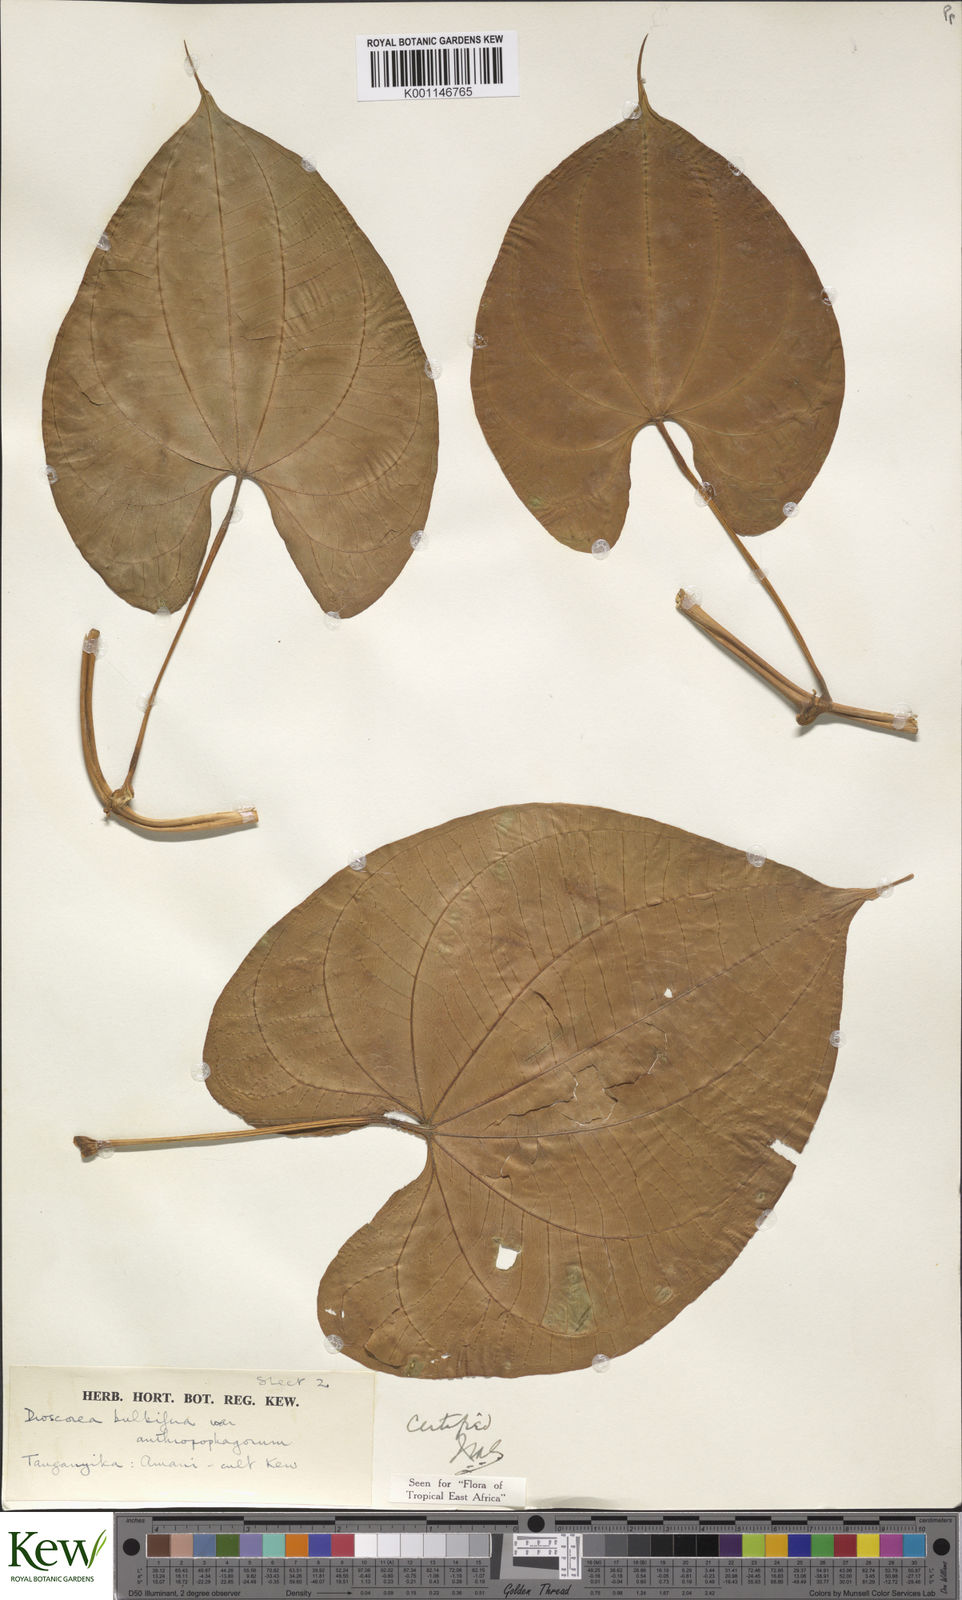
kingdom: Plantae
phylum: Tracheophyta
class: Liliopsida
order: Dioscoreales
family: Dioscoreaceae
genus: Dioscorea
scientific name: Dioscorea bulbifera
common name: Air yam
